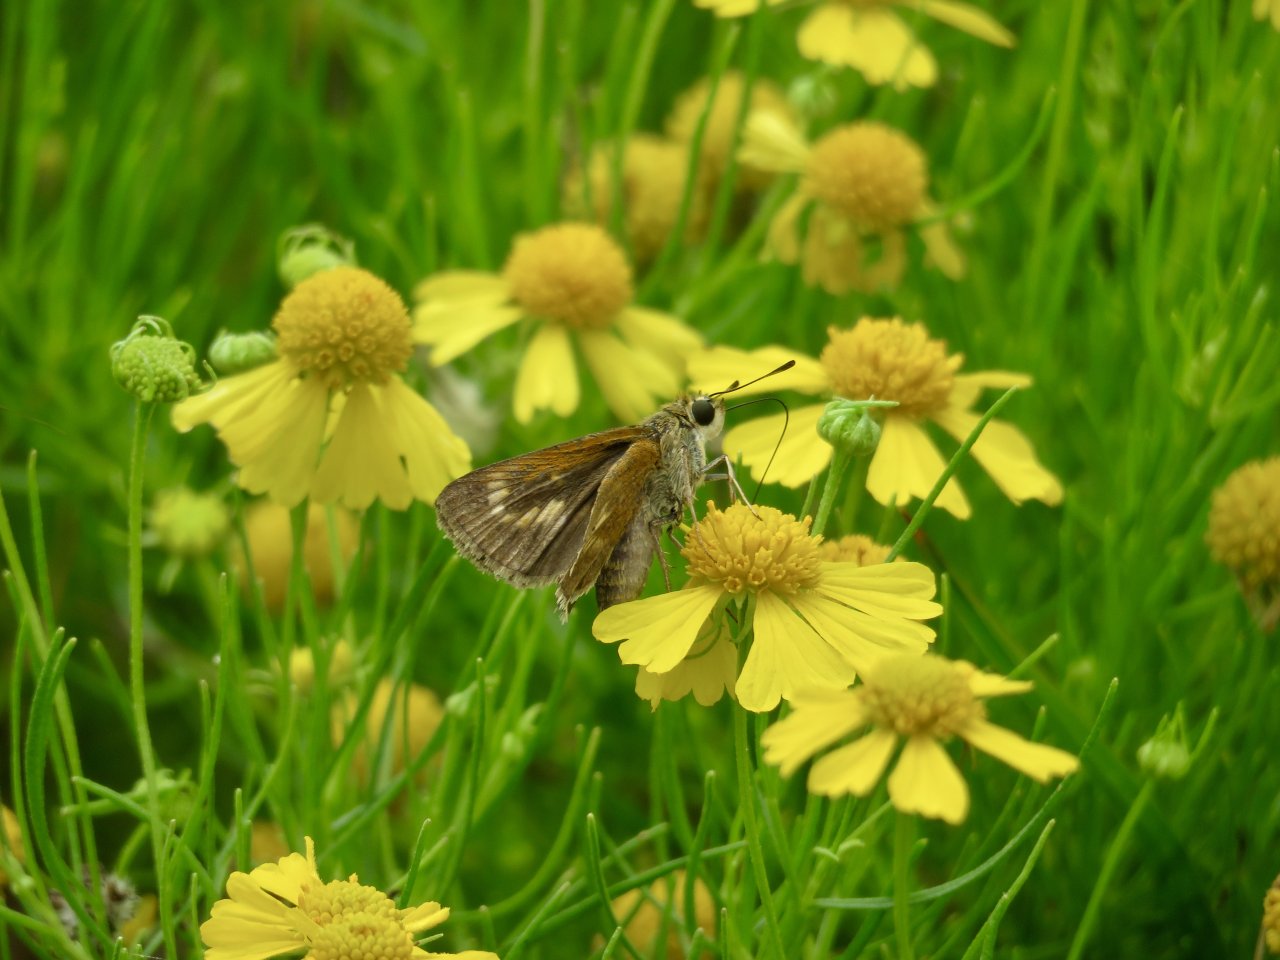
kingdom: Animalia
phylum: Arthropoda
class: Insecta
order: Lepidoptera
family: Hesperiidae
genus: Wallengrenia
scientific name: Wallengrenia otho
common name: Southern Broken-Dash
